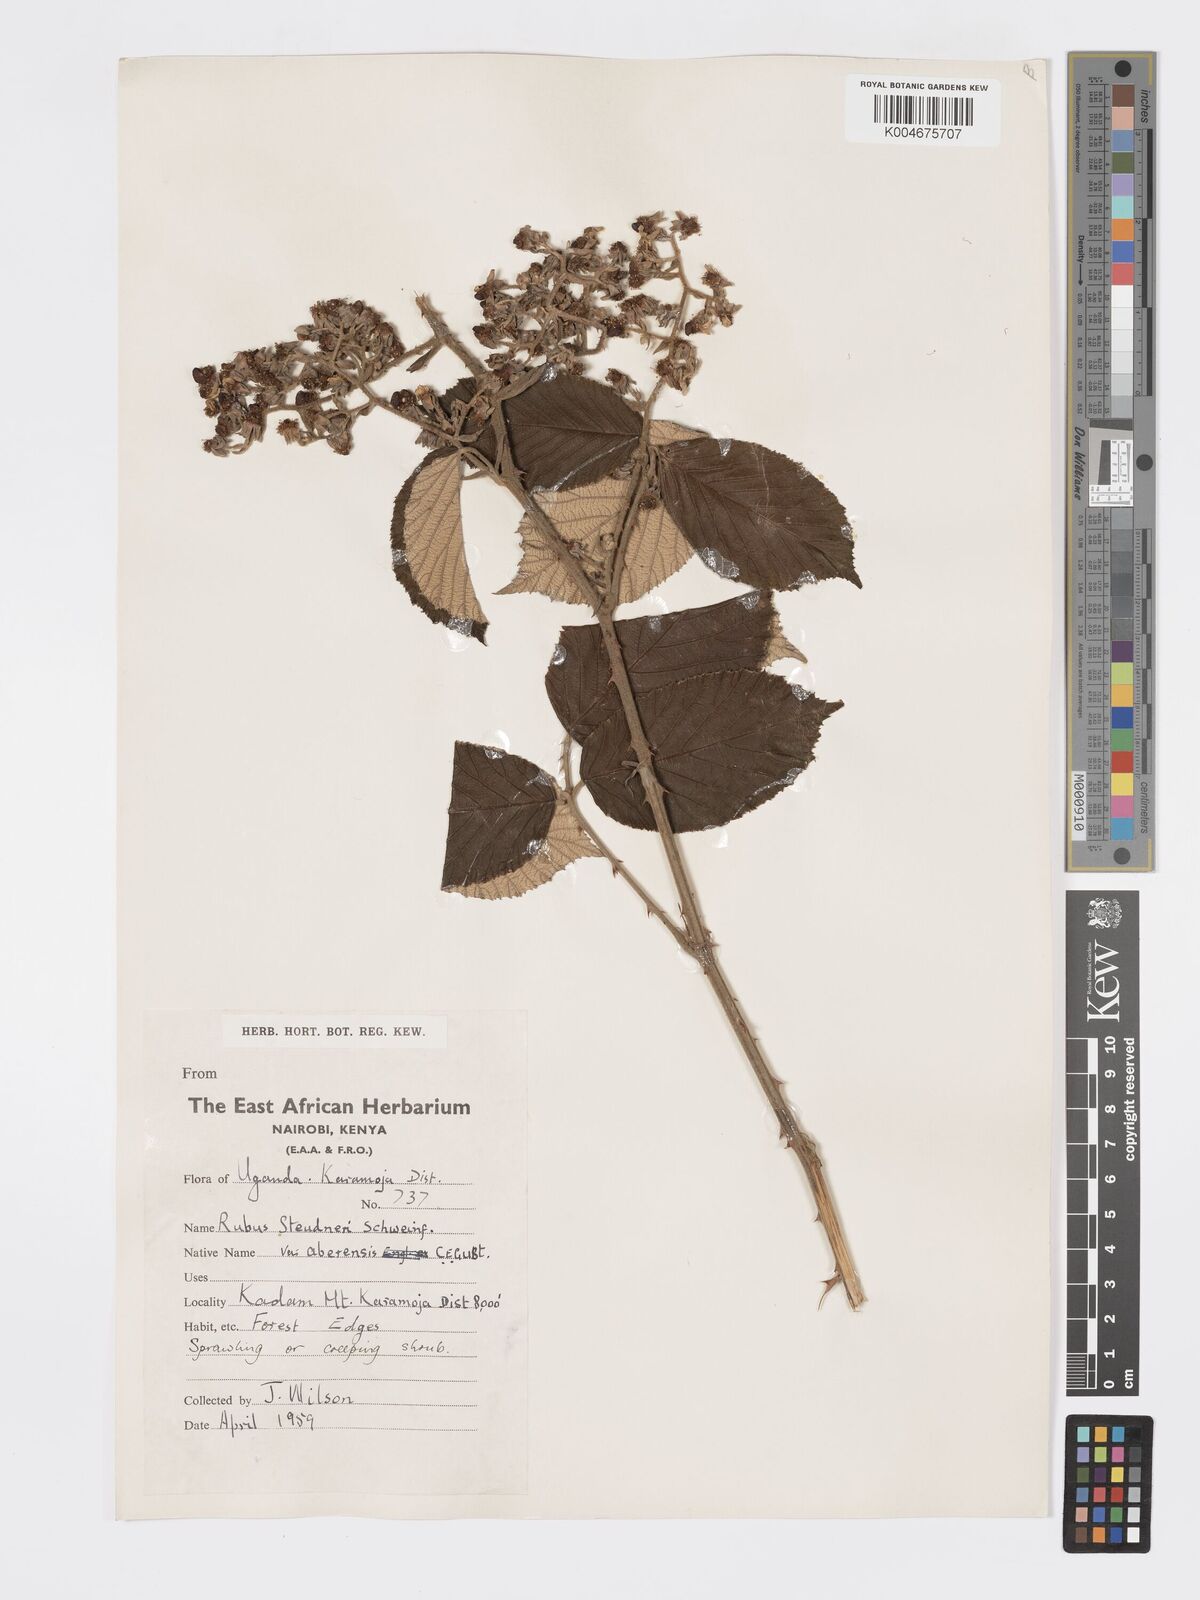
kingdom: Plantae
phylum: Tracheophyta
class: Magnoliopsida
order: Rosales
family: Rosaceae
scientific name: Rosaceae
